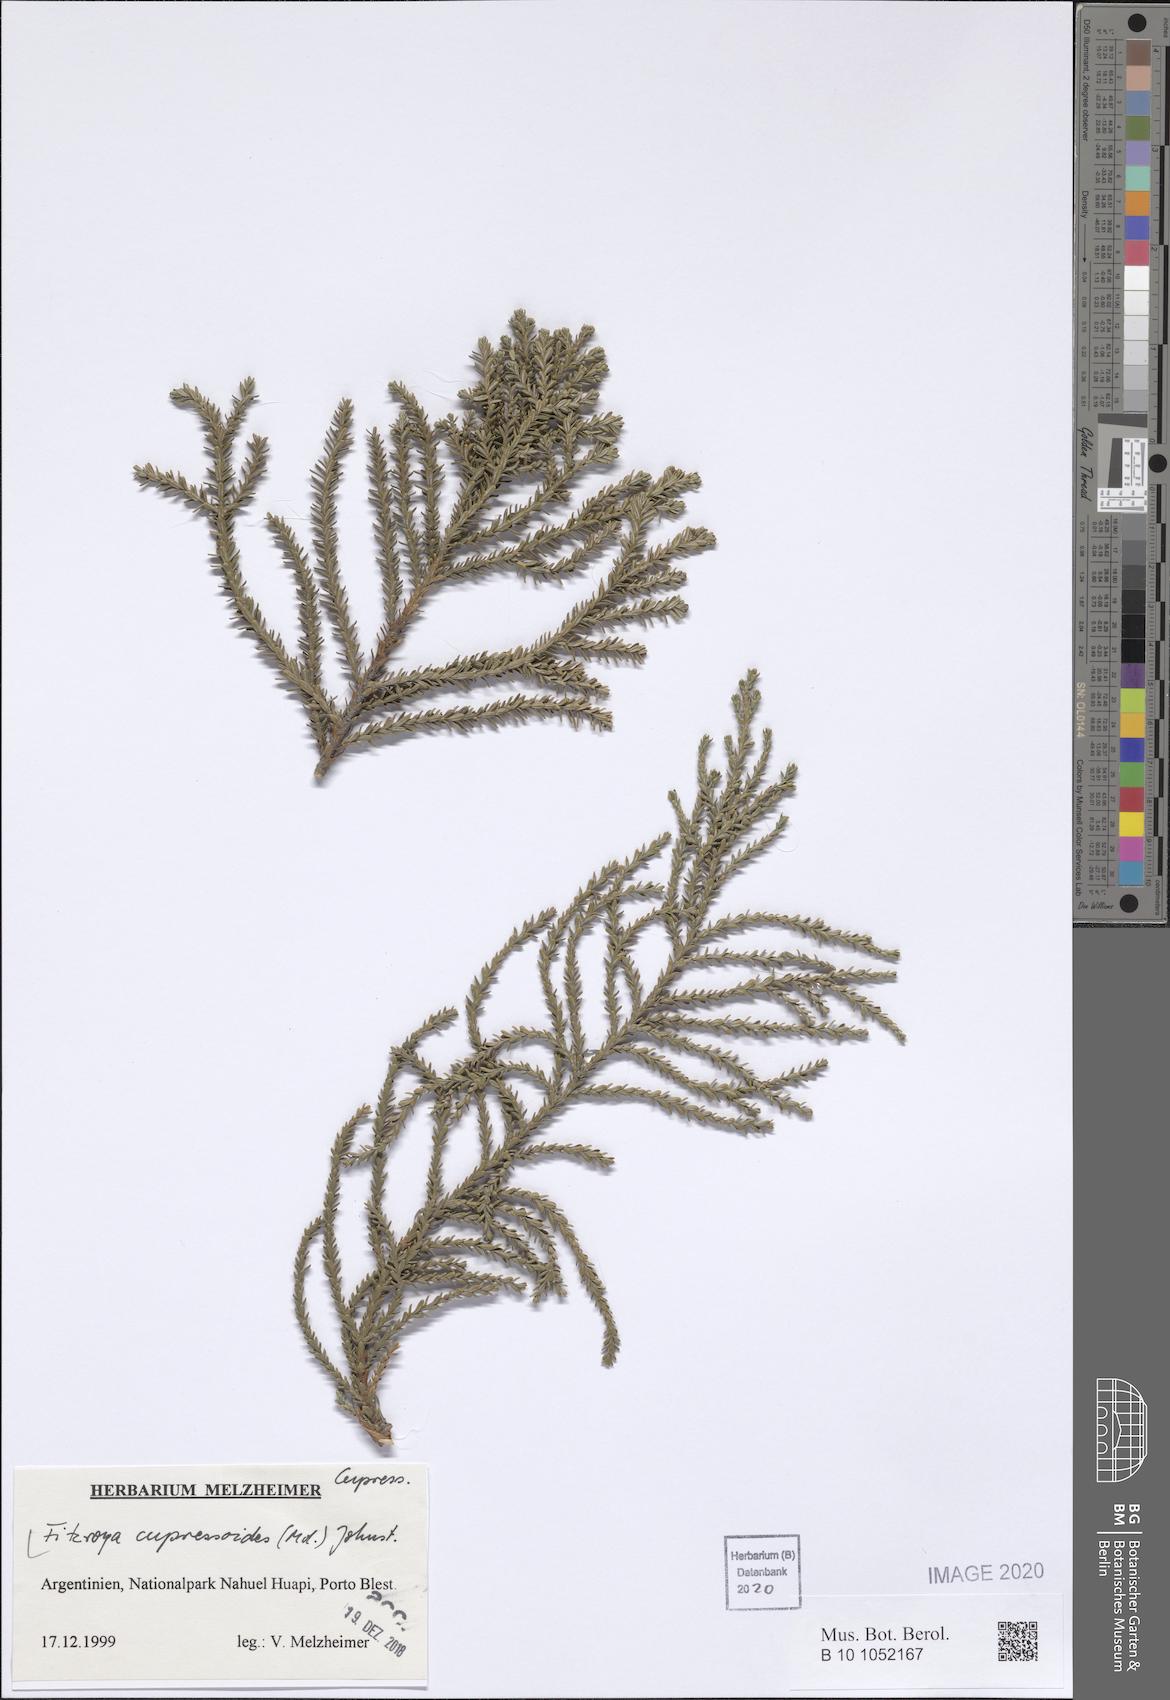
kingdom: Plantae
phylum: Tracheophyta
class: Pinopsida
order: Pinales
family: Cupressaceae
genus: Fitzroya
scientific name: Fitzroya cupressoides
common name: Patagonian cypress
